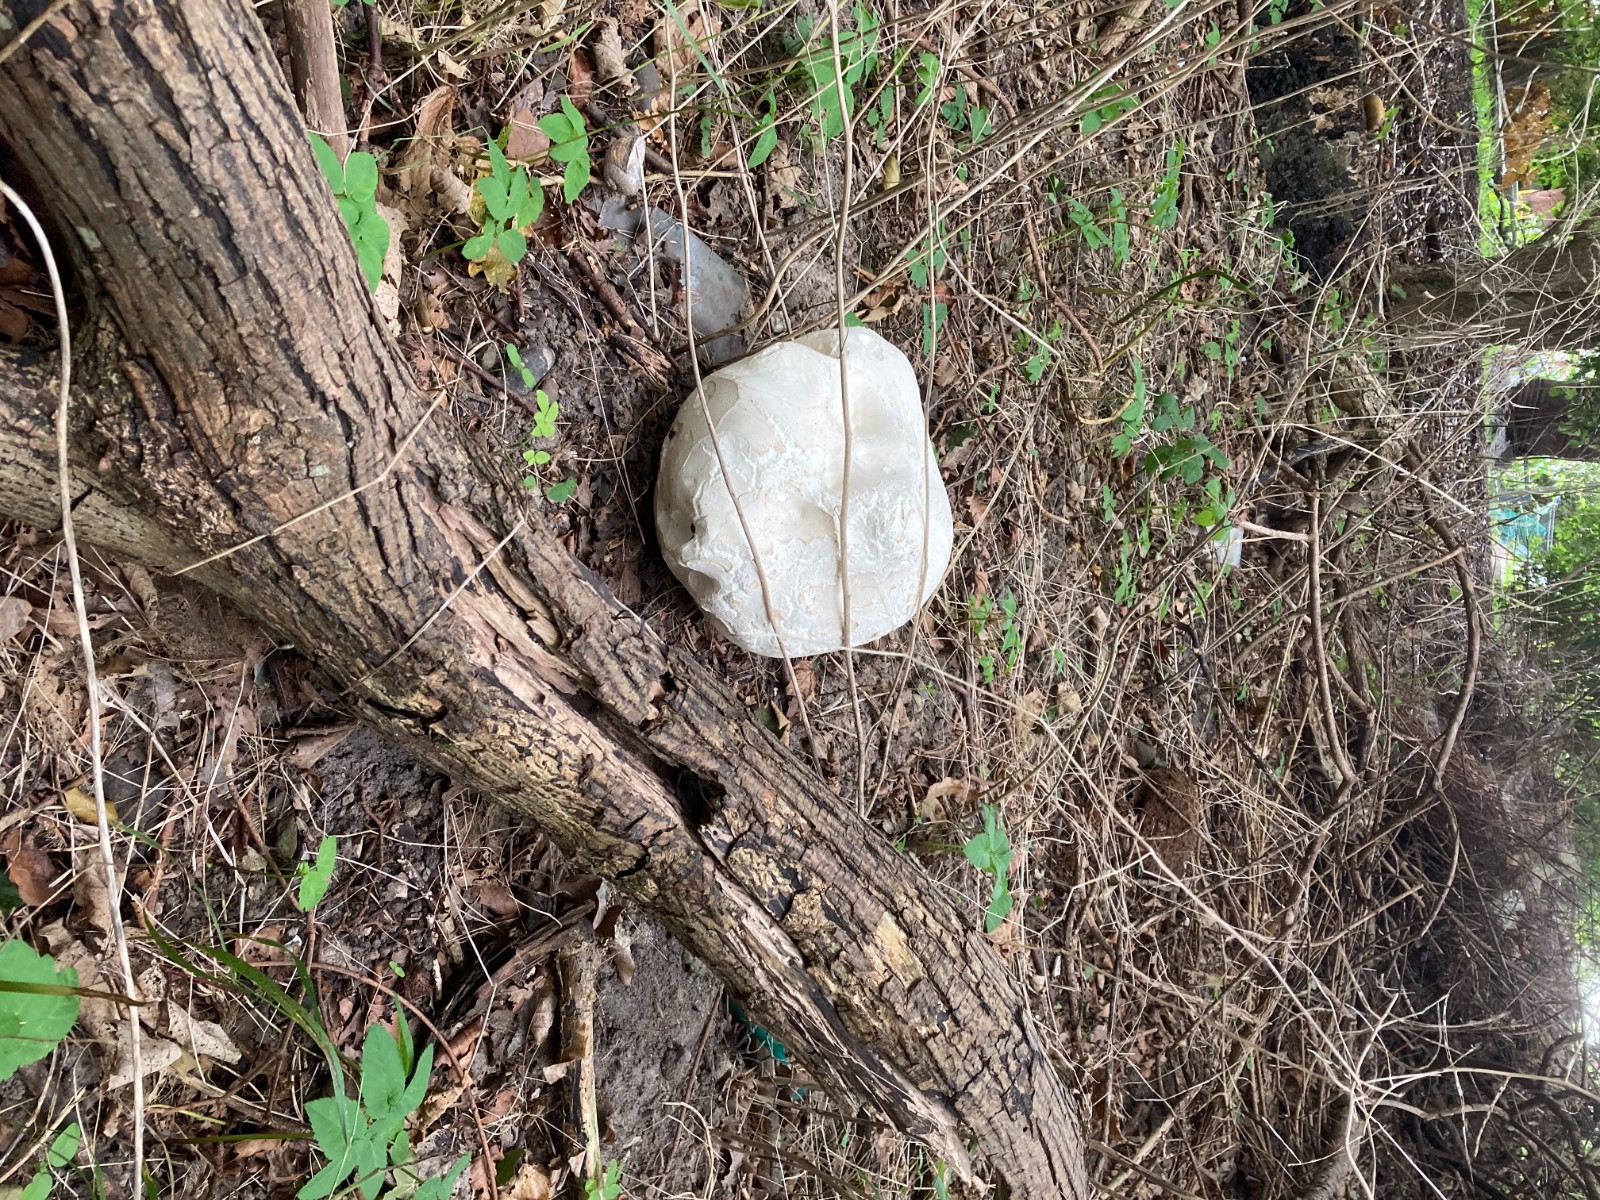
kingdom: Fungi
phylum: Basidiomycota
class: Agaricomycetes
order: Agaricales
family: Lycoperdaceae
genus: Calvatia
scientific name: Calvatia gigantea
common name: kæmpestøvbold
